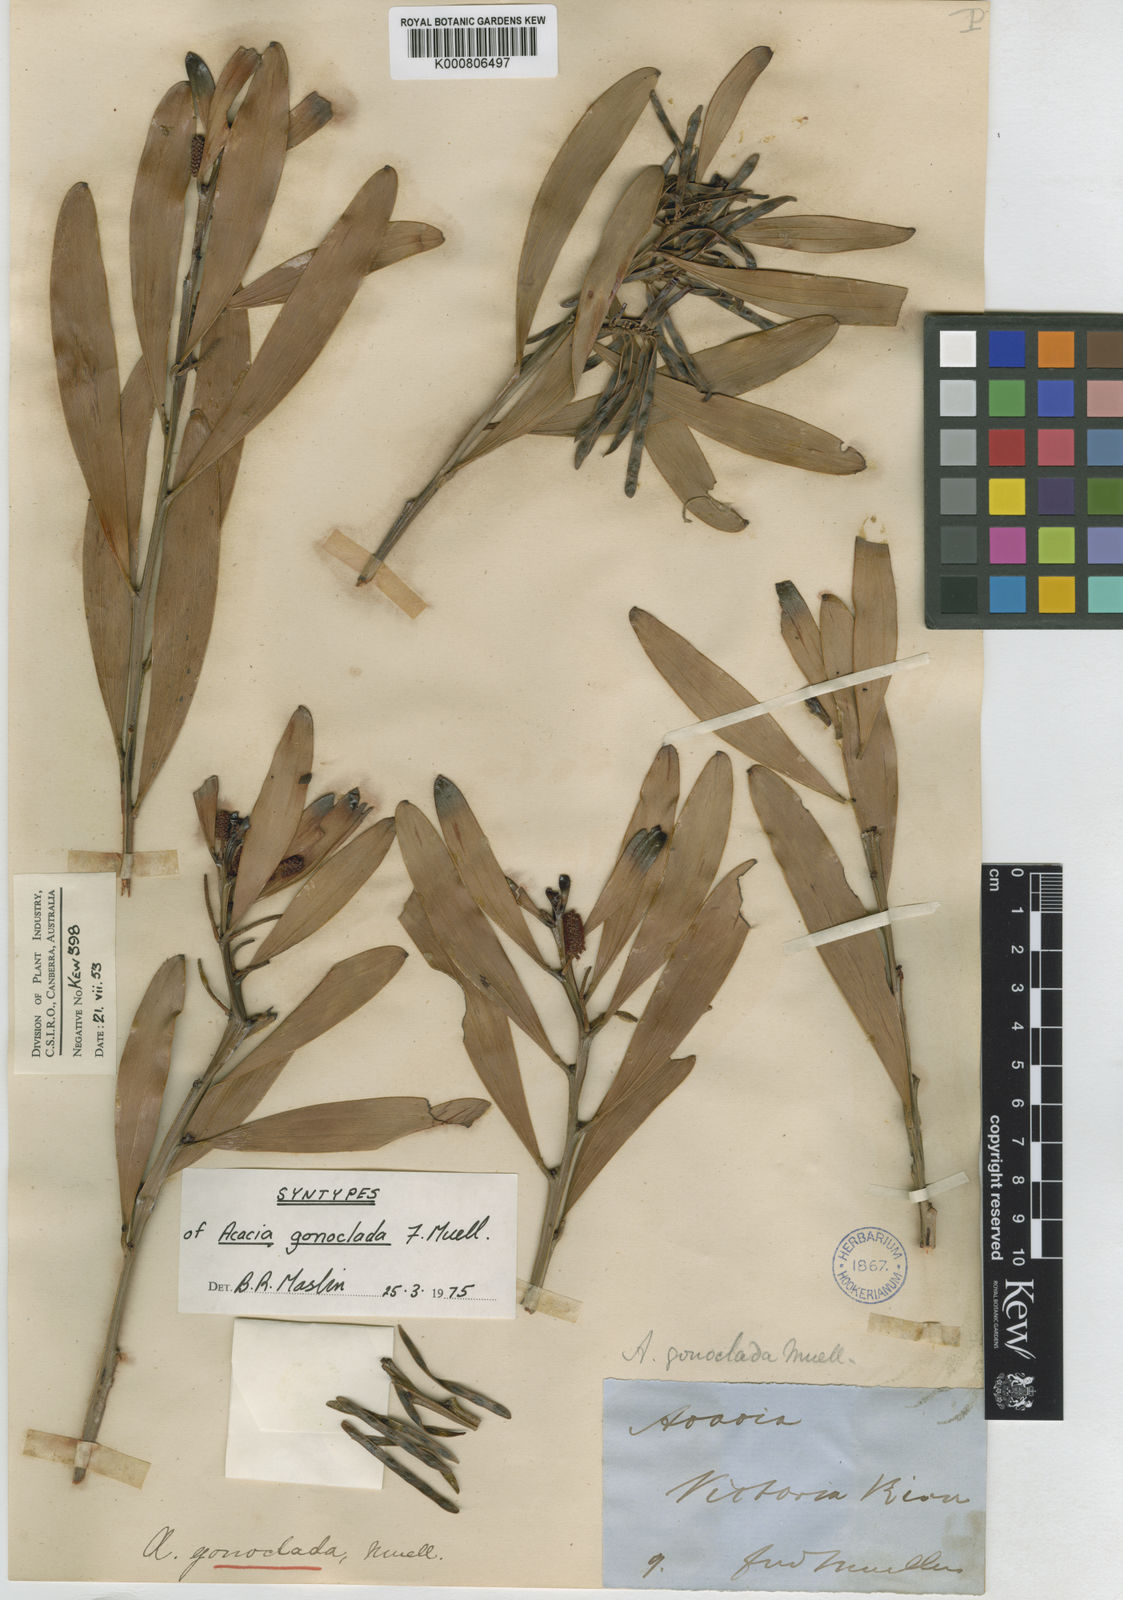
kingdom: Plantae
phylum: Tracheophyta
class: Magnoliopsida
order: Fabales
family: Fabaceae
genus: Acacia
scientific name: Acacia gonoclada
